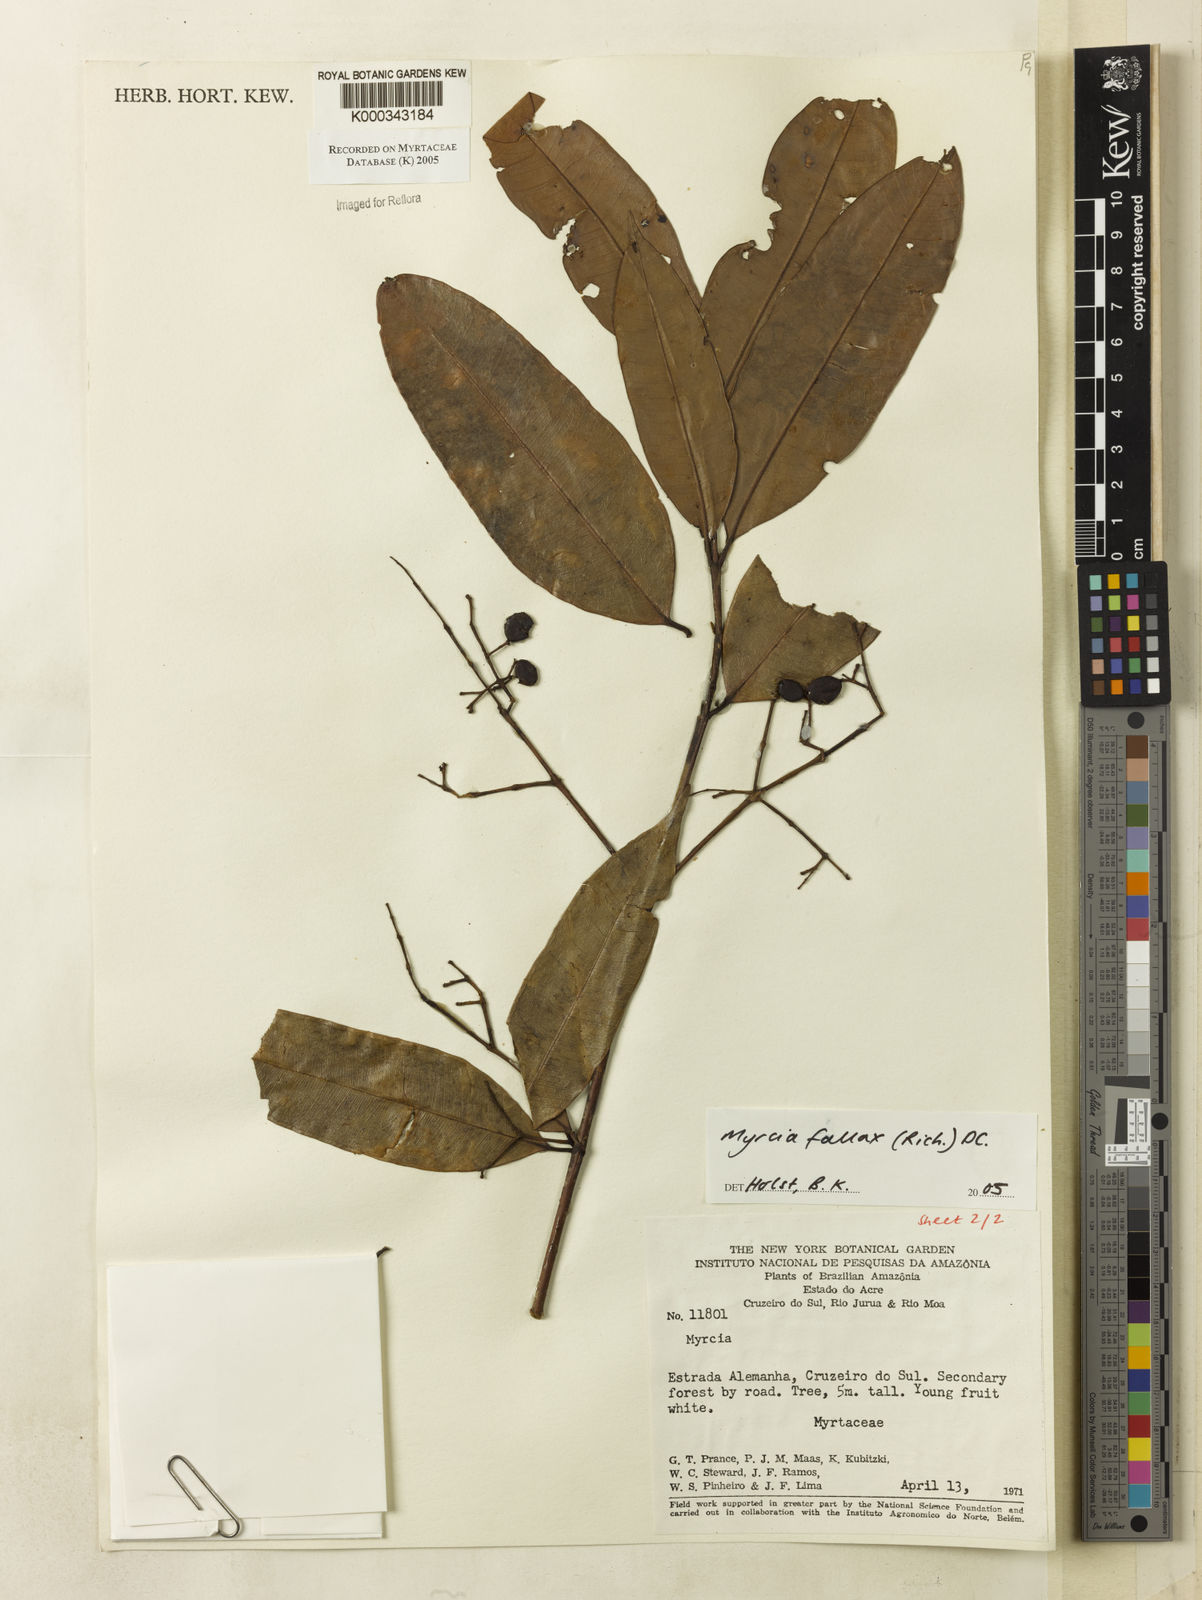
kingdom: Plantae
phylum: Tracheophyta
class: Magnoliopsida
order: Myrtales
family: Myrtaceae
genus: Myrcia
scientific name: Myrcia splendens
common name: Surinam cherry
